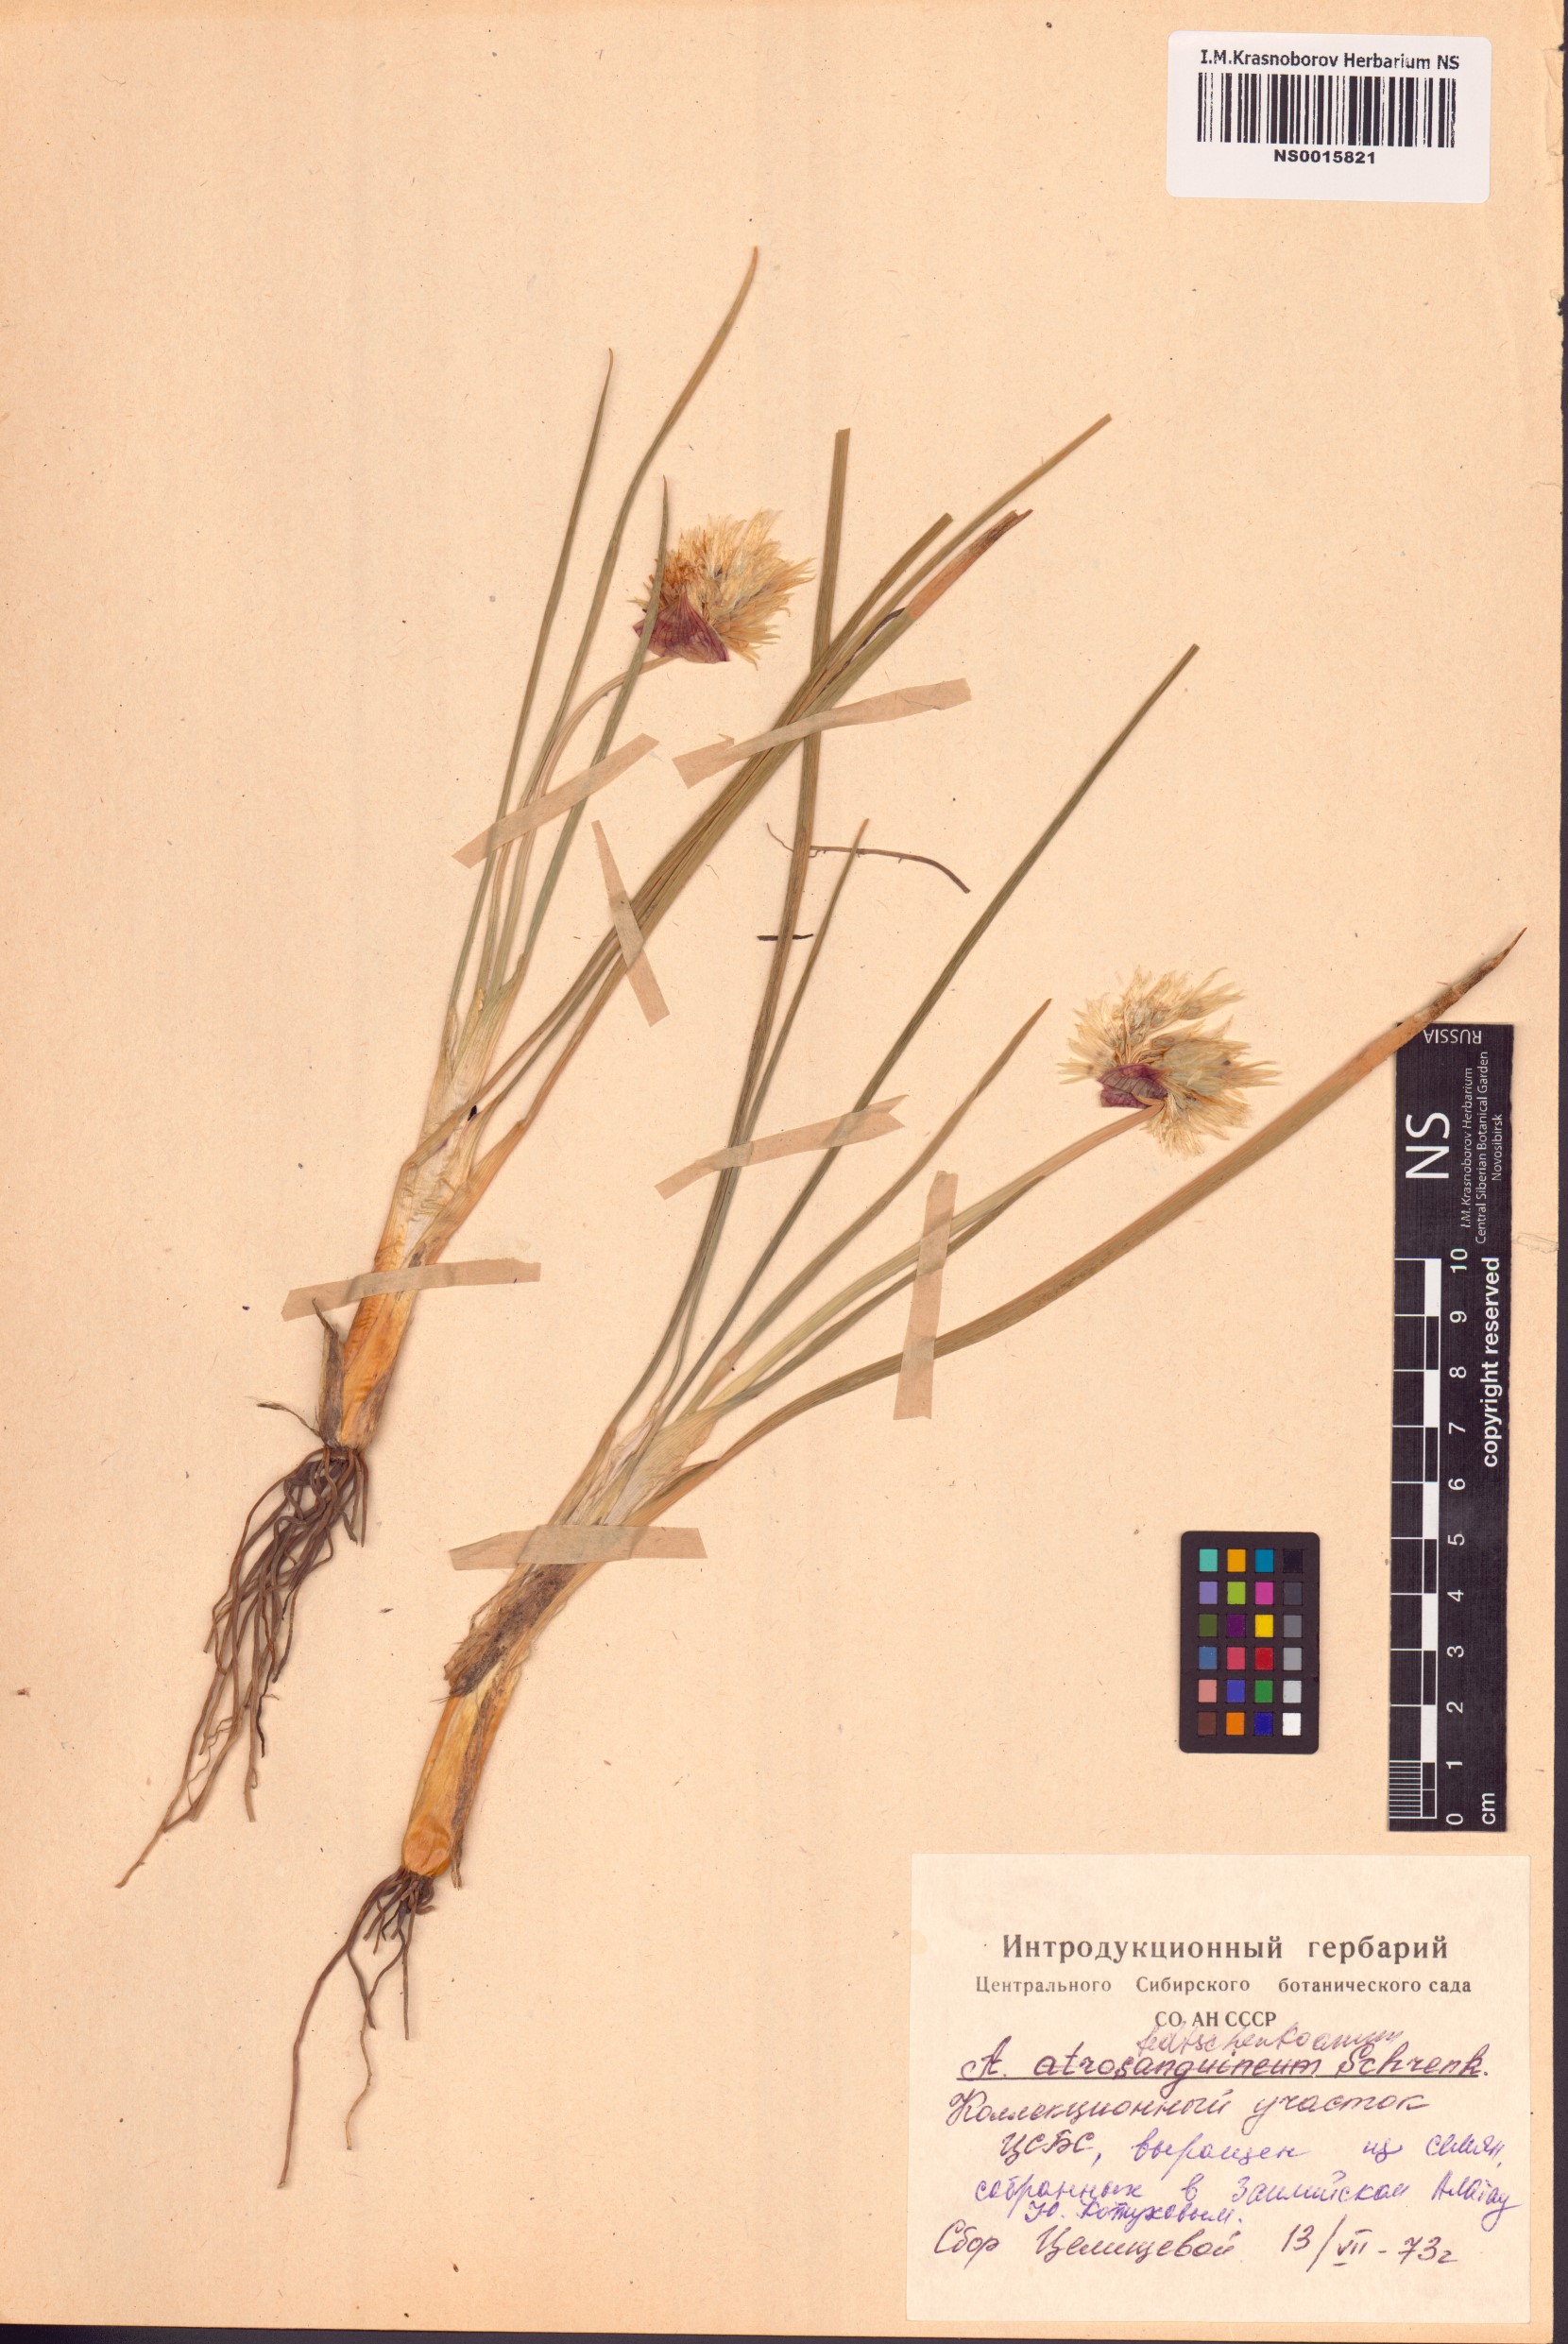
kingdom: Plantae
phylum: Tracheophyta
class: Liliopsida
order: Asparagales
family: Amaryllidaceae
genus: Allium
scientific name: Allium atrosanguineum
